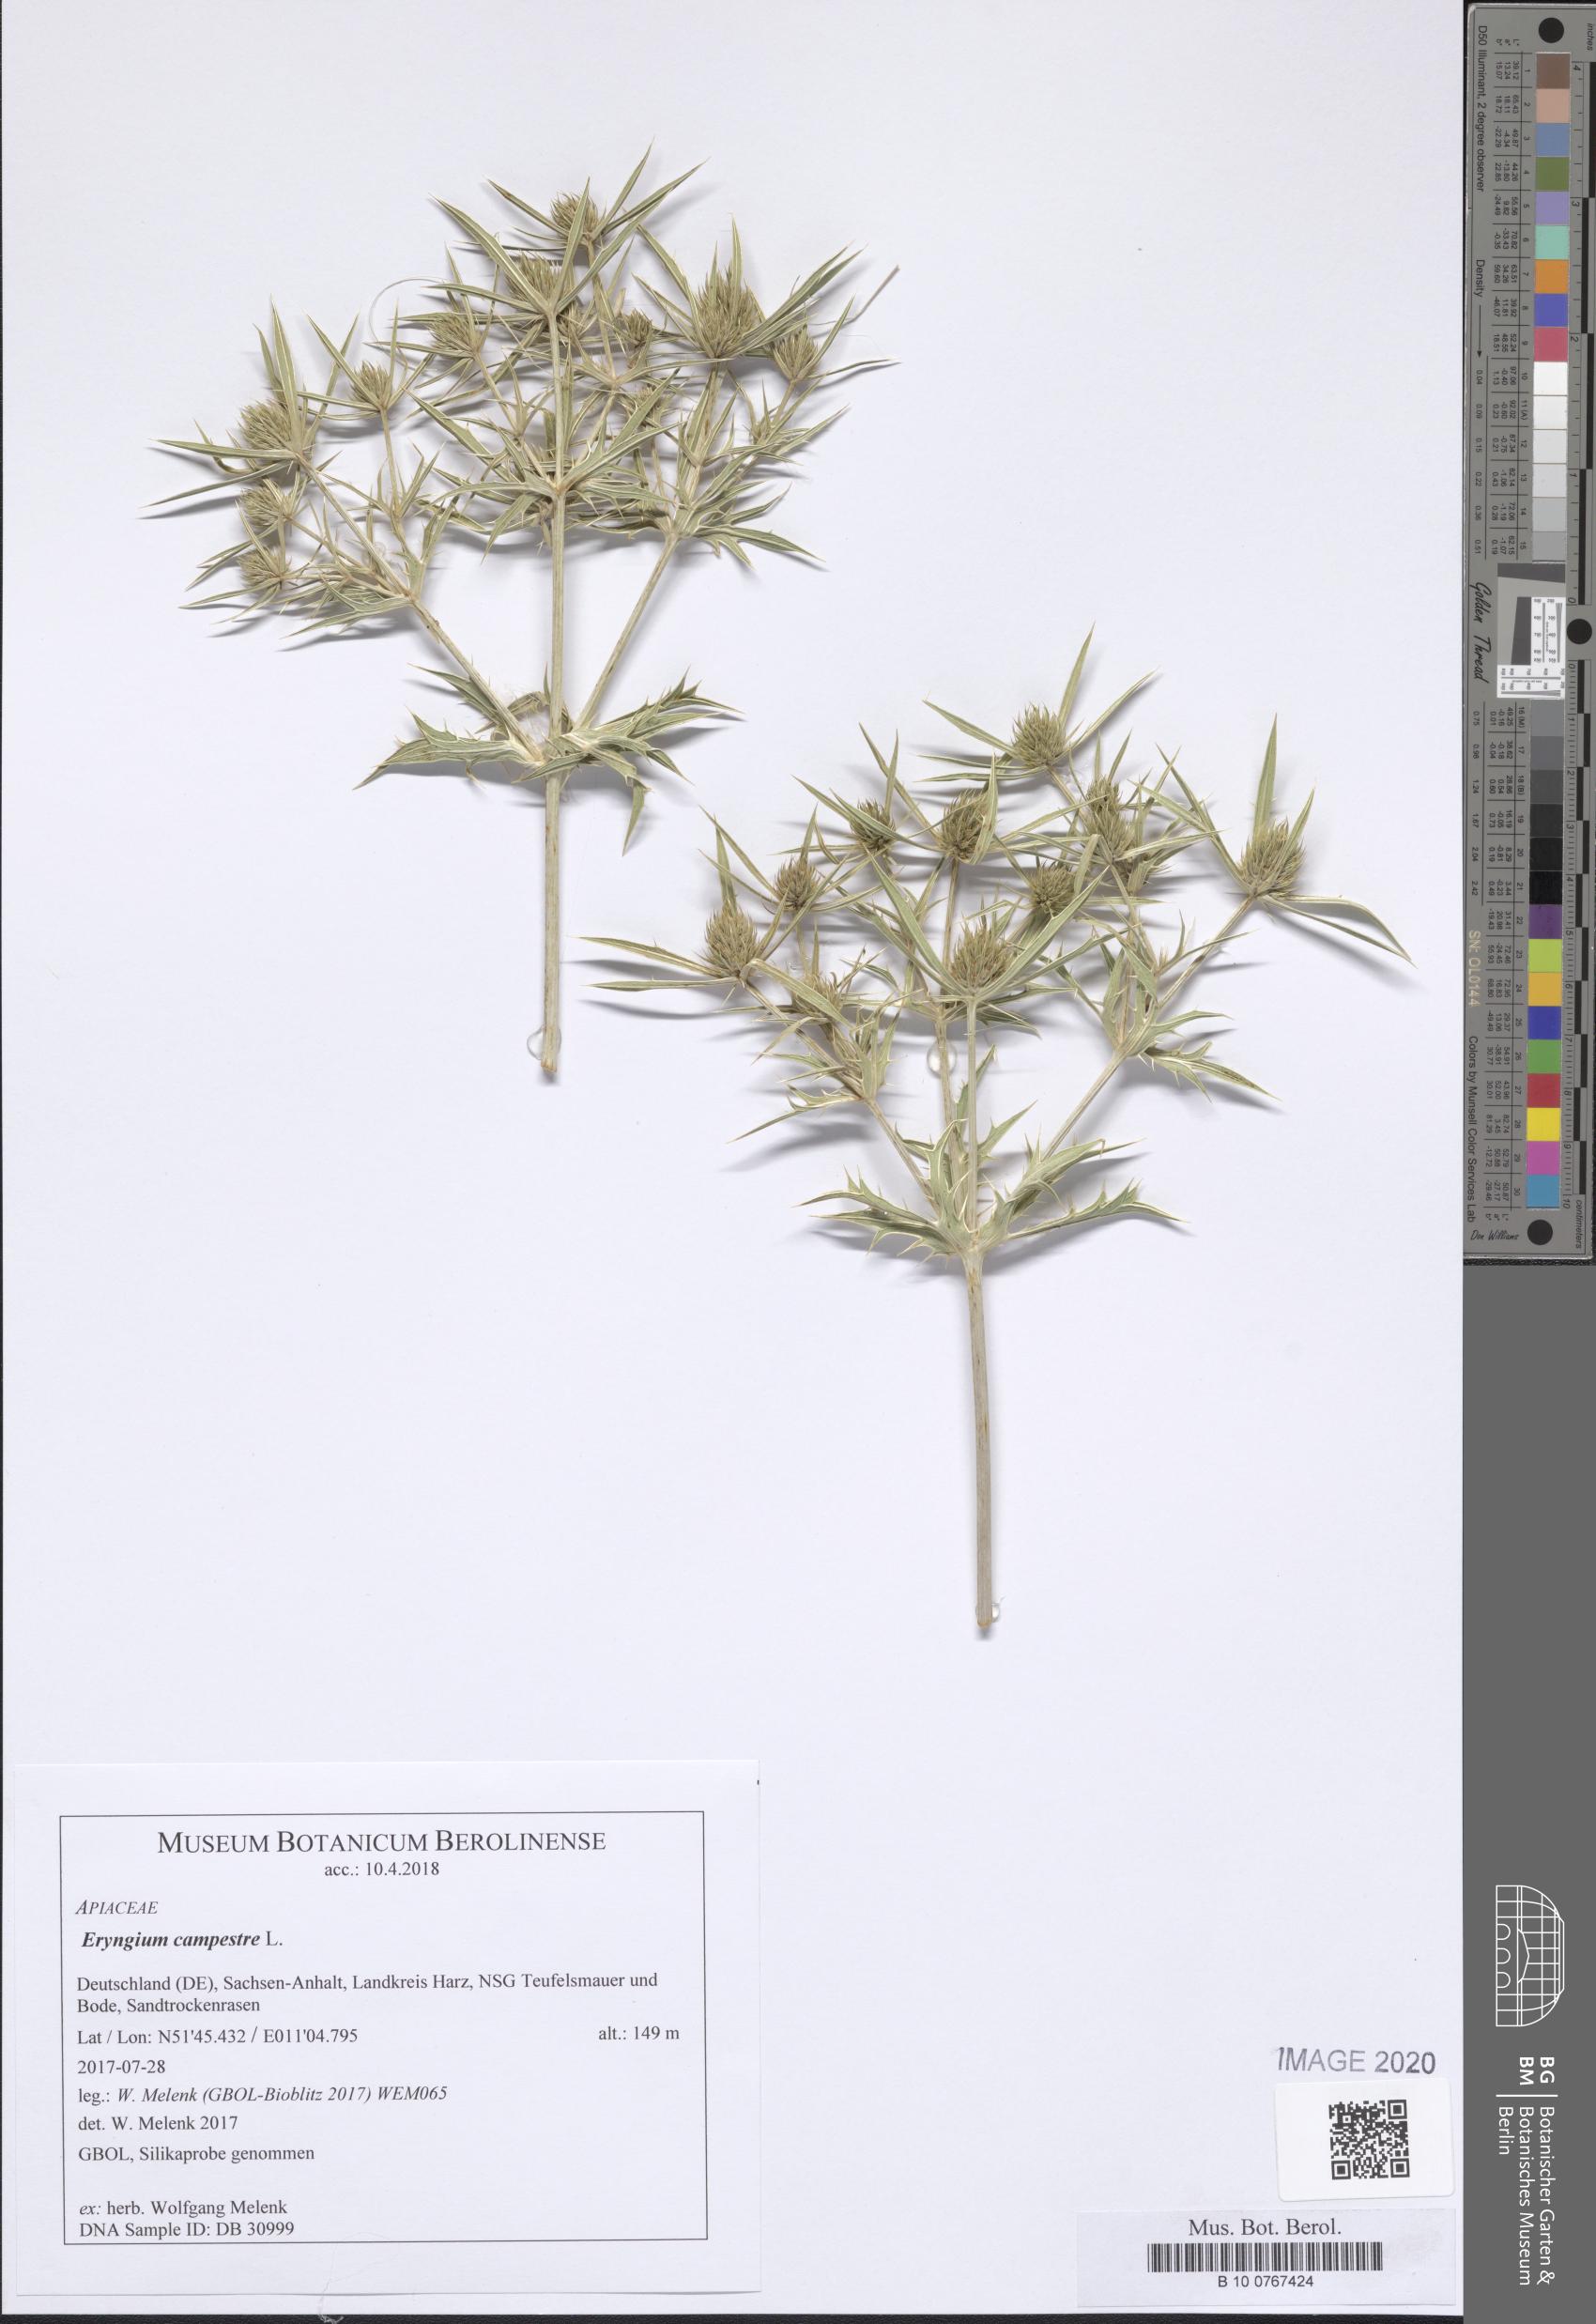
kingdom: Plantae
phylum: Tracheophyta
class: Magnoliopsida
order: Apiales
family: Apiaceae
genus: Eryngium
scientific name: Eryngium campestre
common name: Field eryngo
